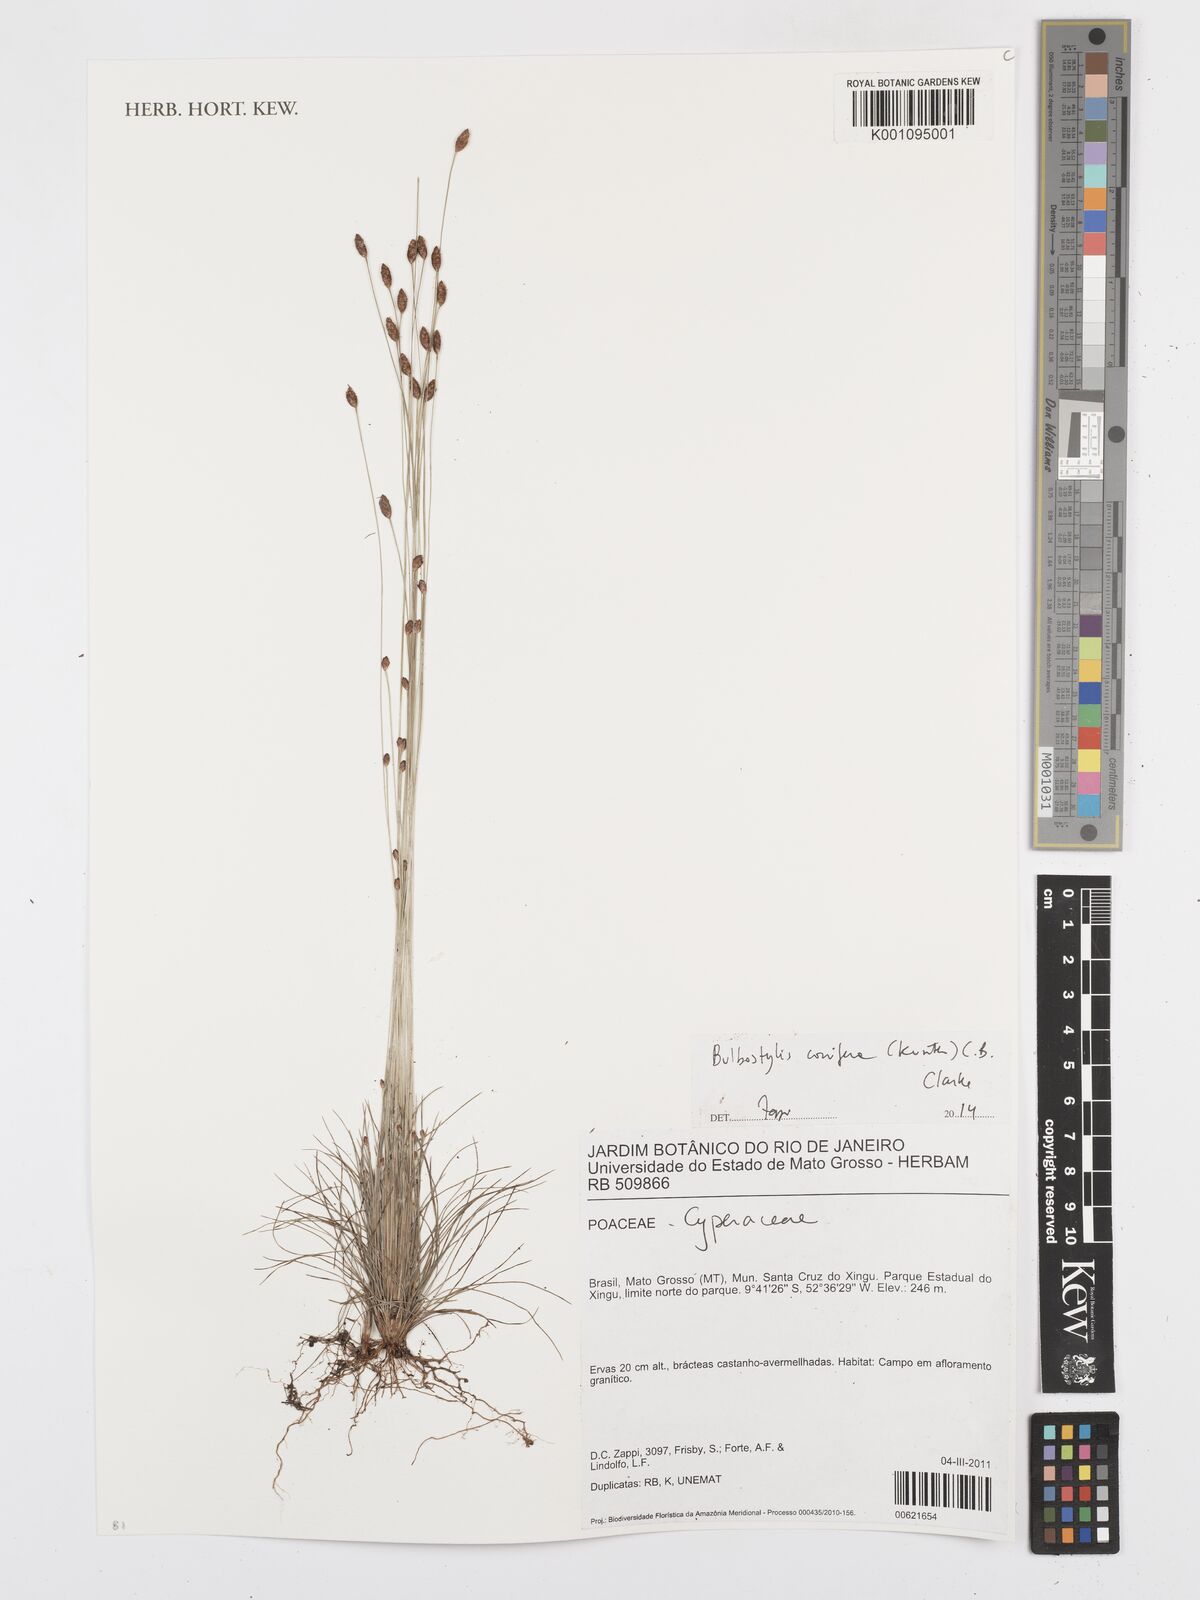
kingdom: Plantae
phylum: Tracheophyta
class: Liliopsida
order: Poales
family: Cyperaceae
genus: Bulbostylis
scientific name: Bulbostylis conifera
